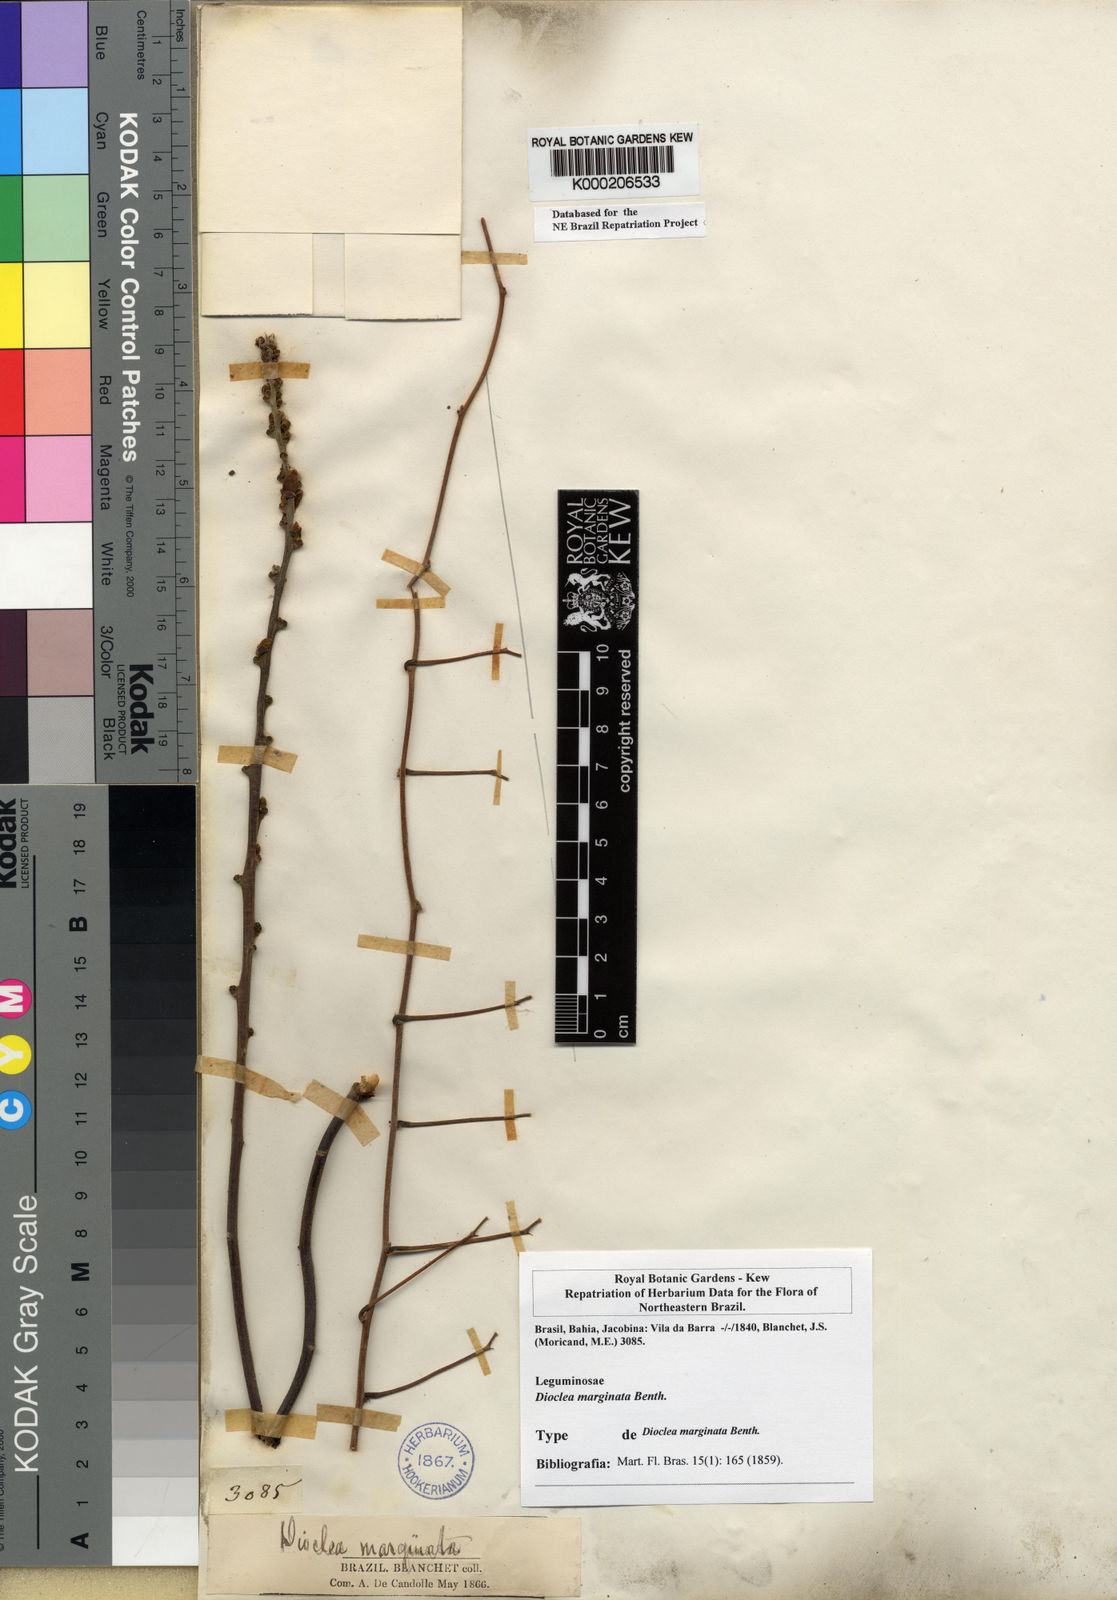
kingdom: Plantae
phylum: Tracheophyta
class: Magnoliopsida
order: Fabales
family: Fabaceae
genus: Macropsychanthus
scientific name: Macropsychanthus marginatus
